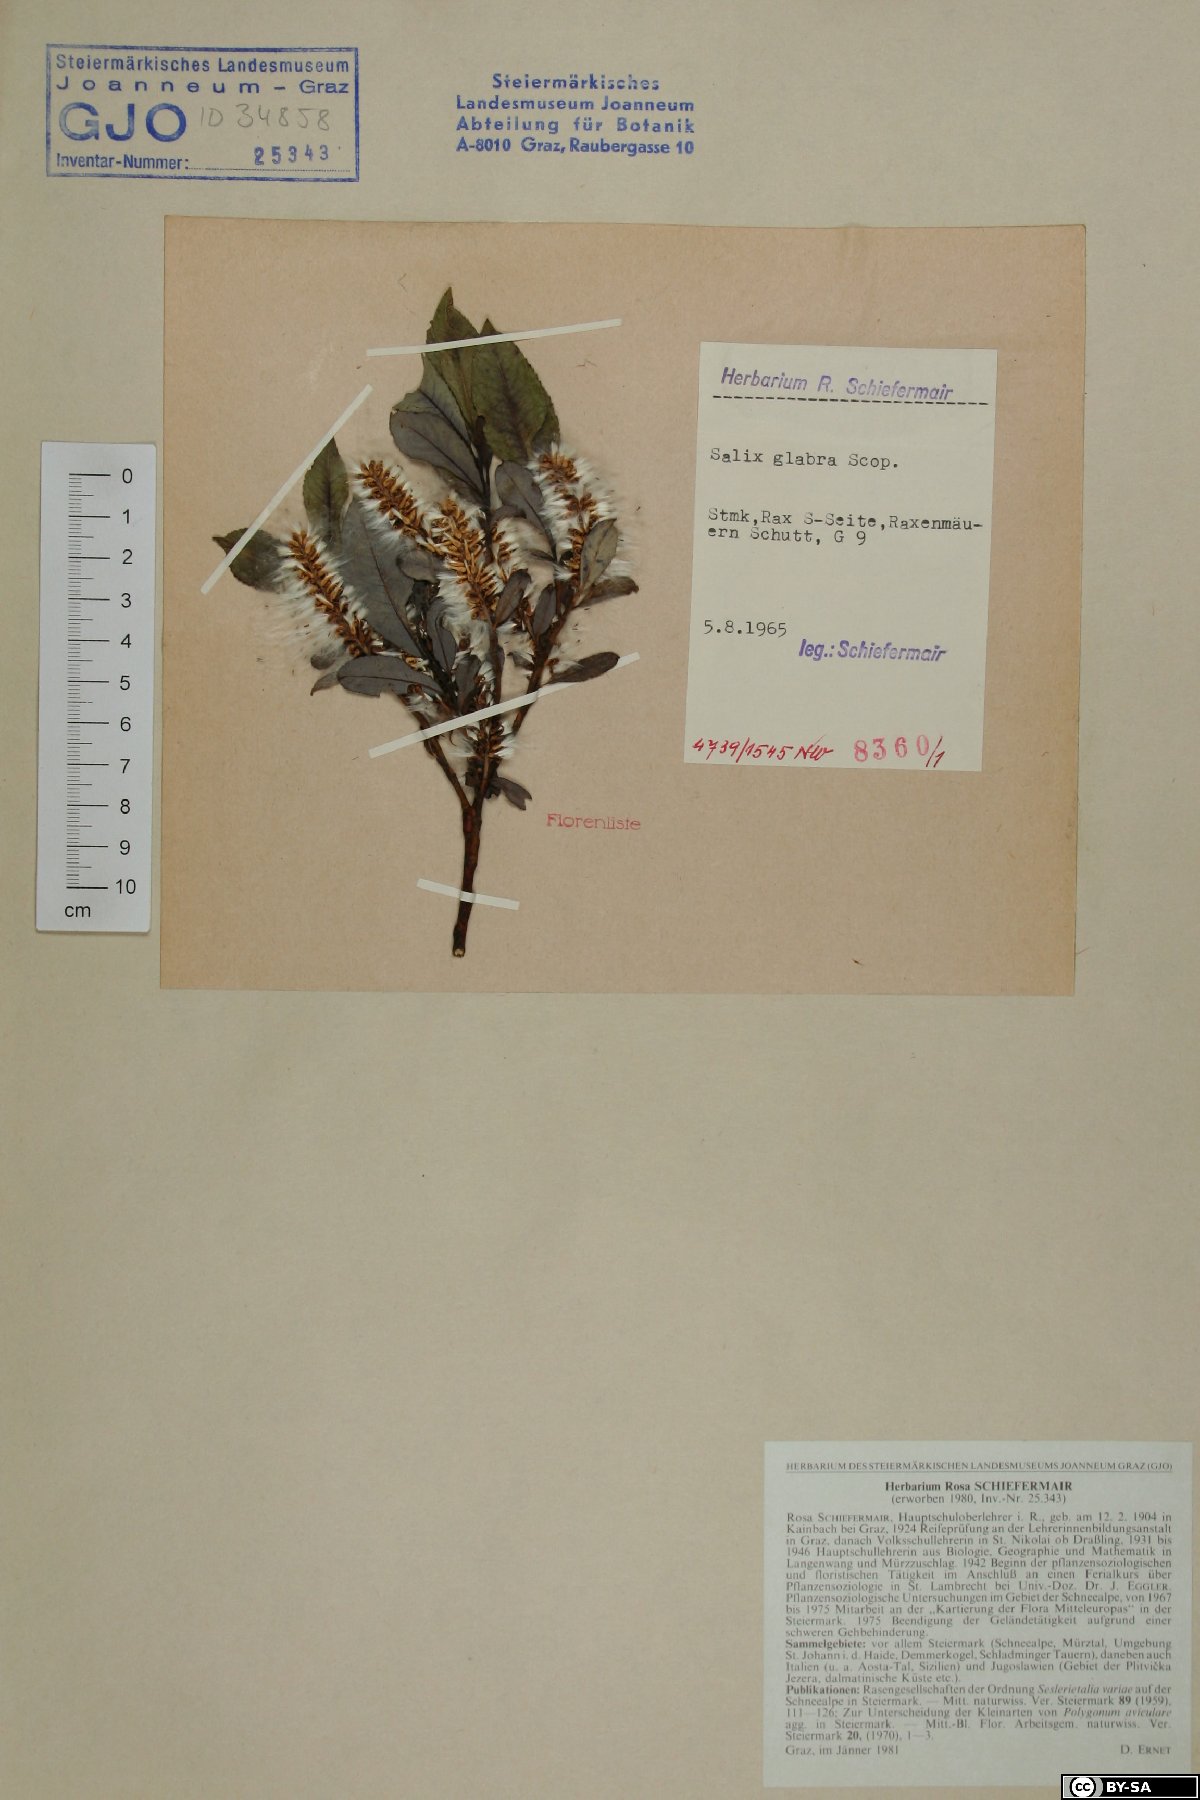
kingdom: Plantae
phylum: Tracheophyta
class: Magnoliopsida
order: Malpighiales
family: Salicaceae
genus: Salix
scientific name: Salix glabra
